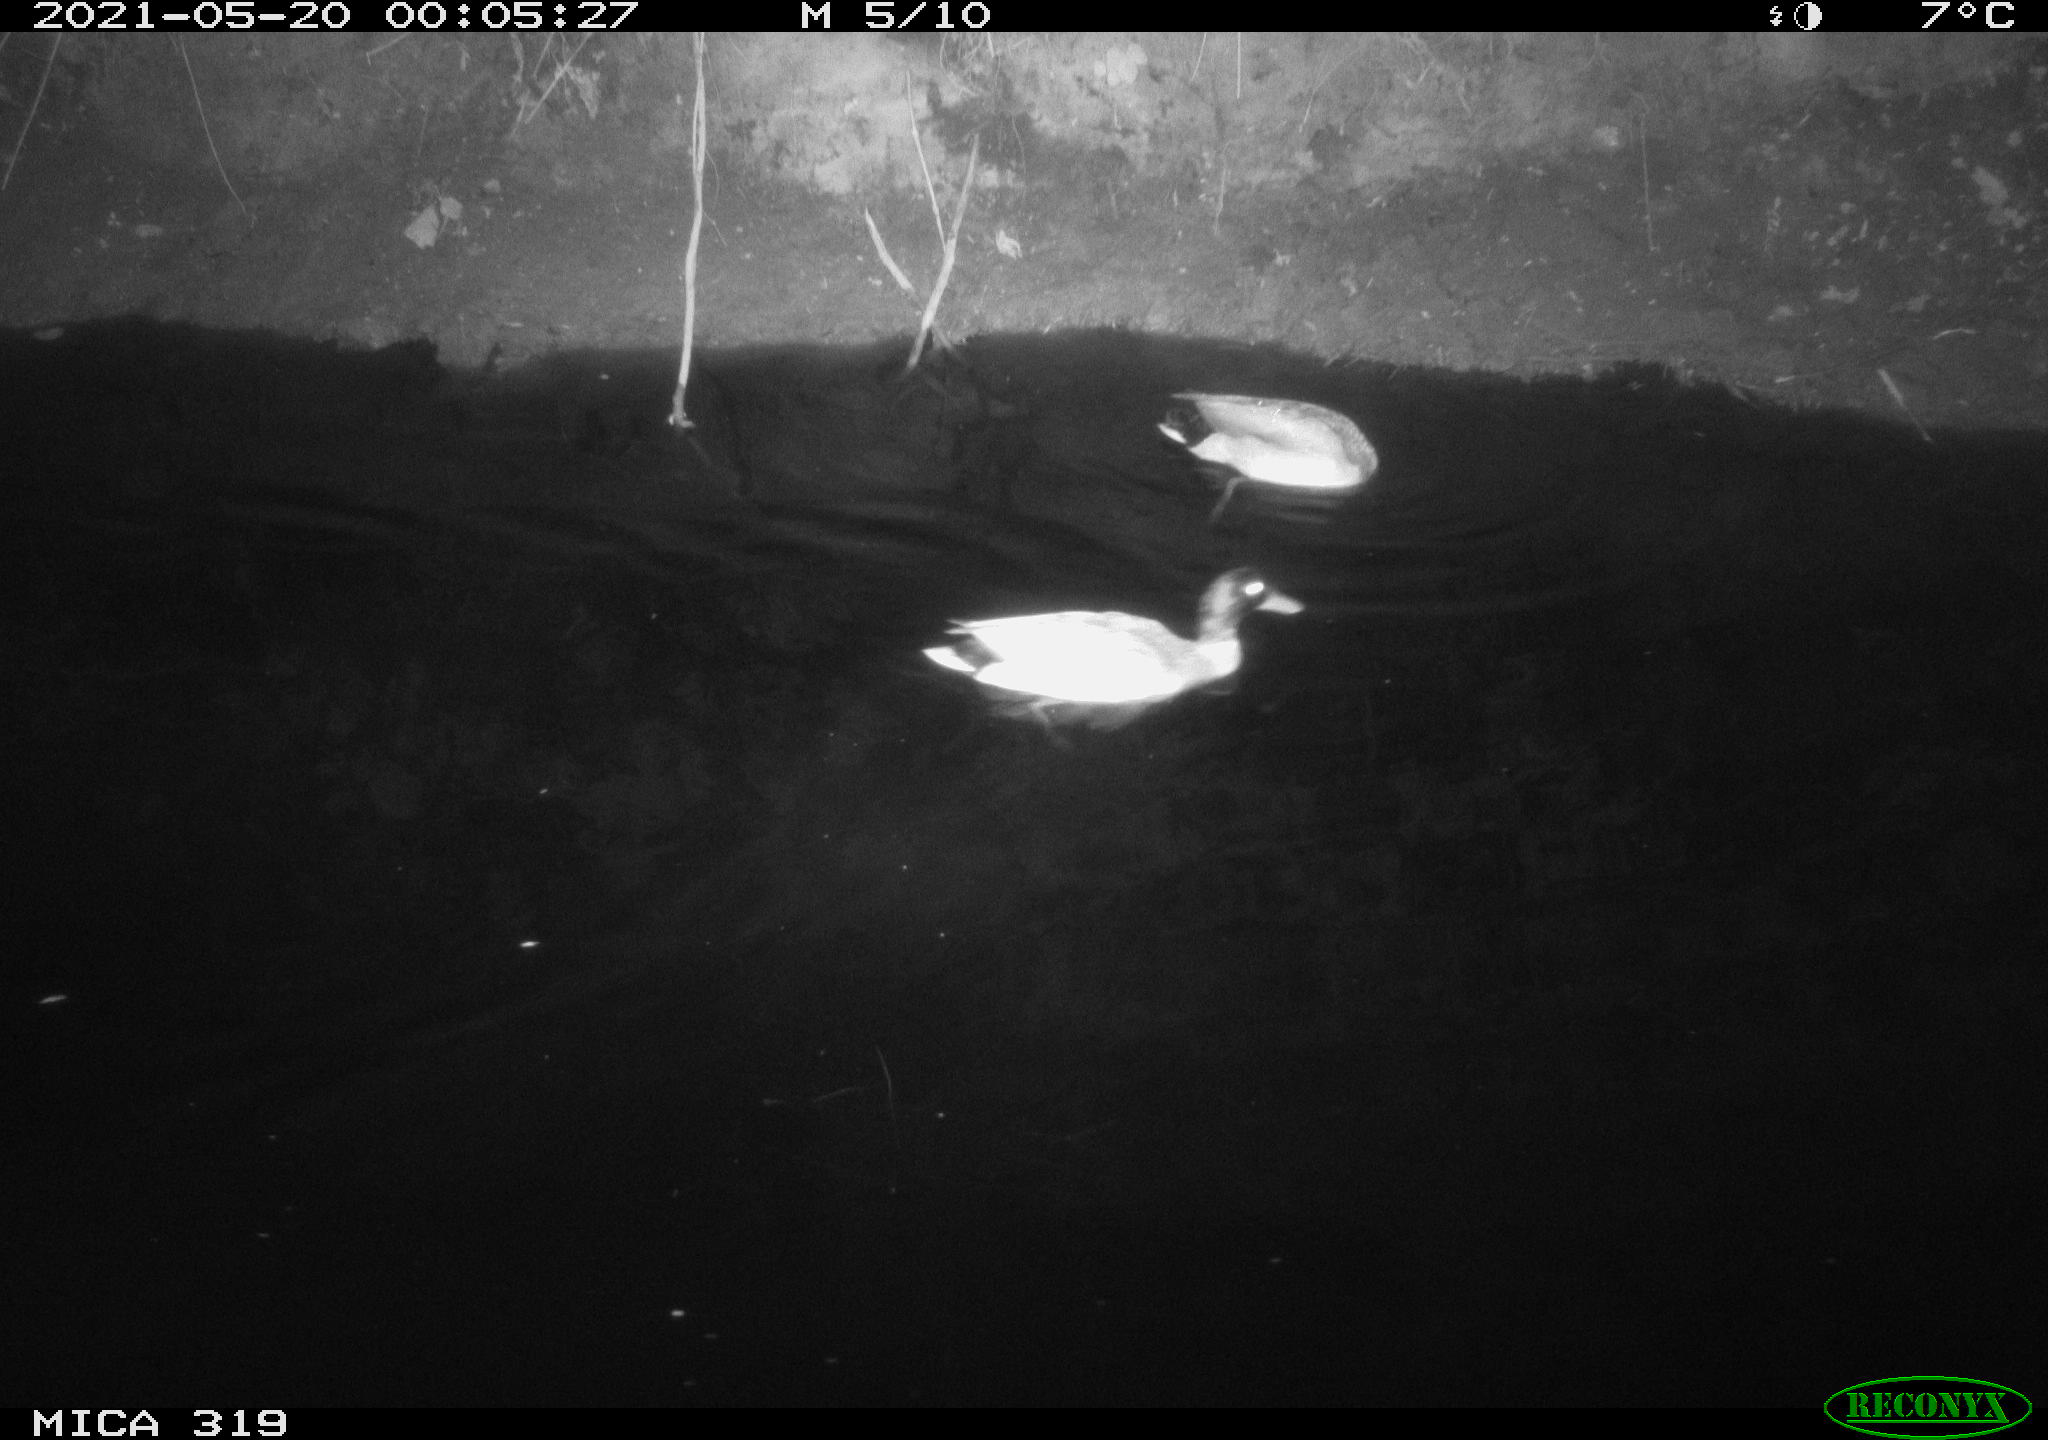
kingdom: Animalia
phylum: Chordata
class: Aves
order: Anseriformes
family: Anatidae
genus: Anas
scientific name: Anas platyrhynchos
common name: Mallard
